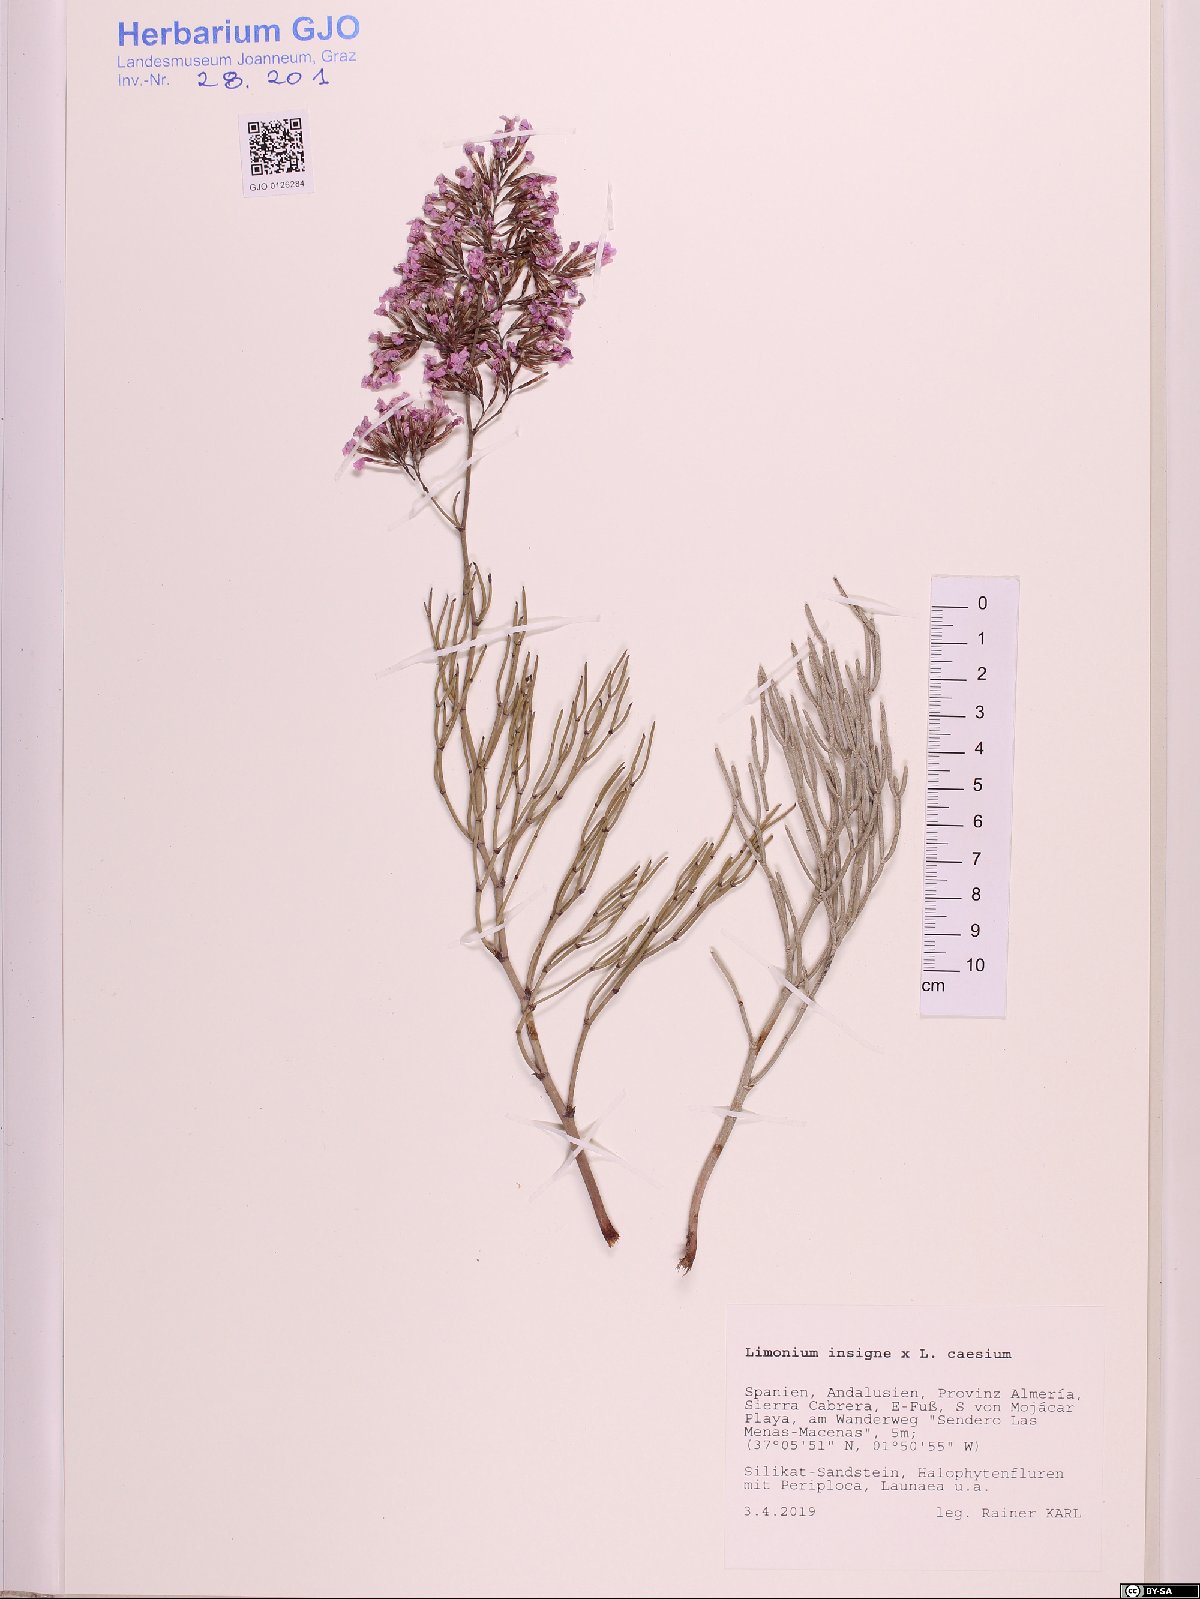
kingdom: Plantae
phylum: Tracheophyta
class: Magnoliopsida
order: Caryophyllales
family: Plumbaginaceae
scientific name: Plumbaginaceae
